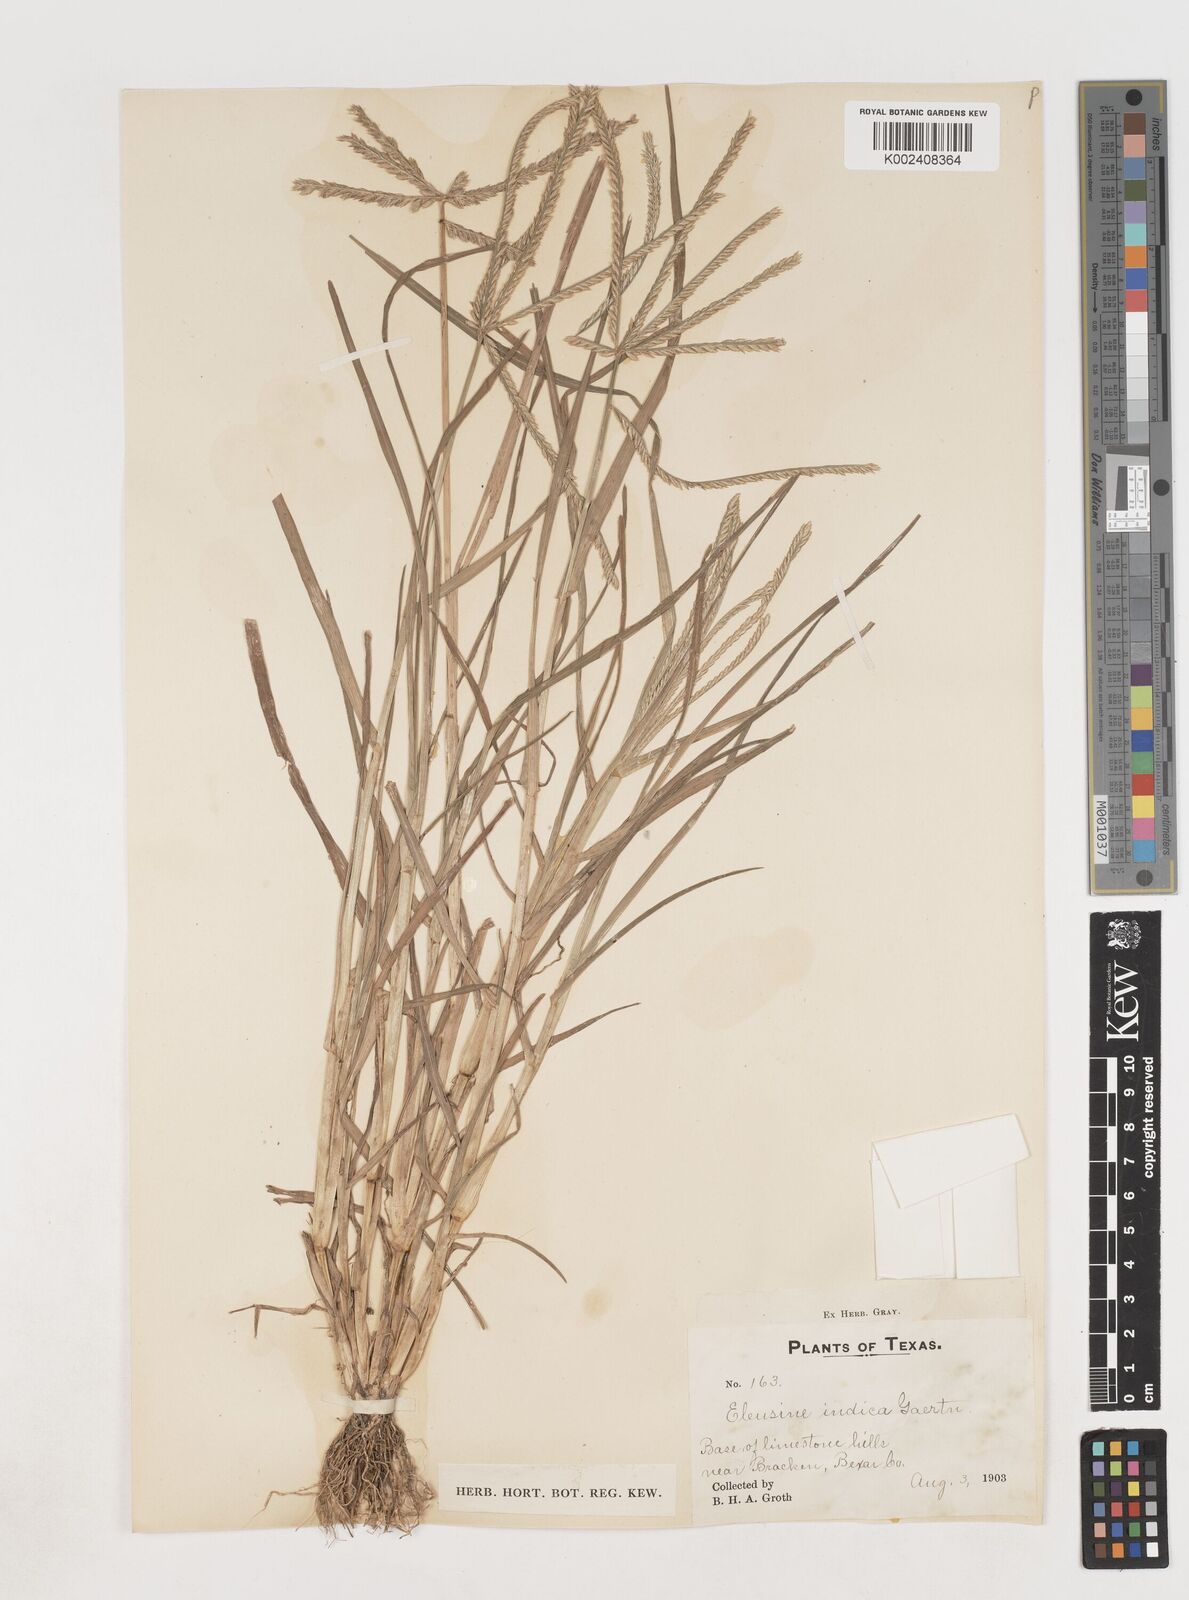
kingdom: Plantae
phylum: Tracheophyta
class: Liliopsida
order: Poales
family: Poaceae
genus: Eleusine
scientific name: Eleusine indica
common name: Yard-grass
